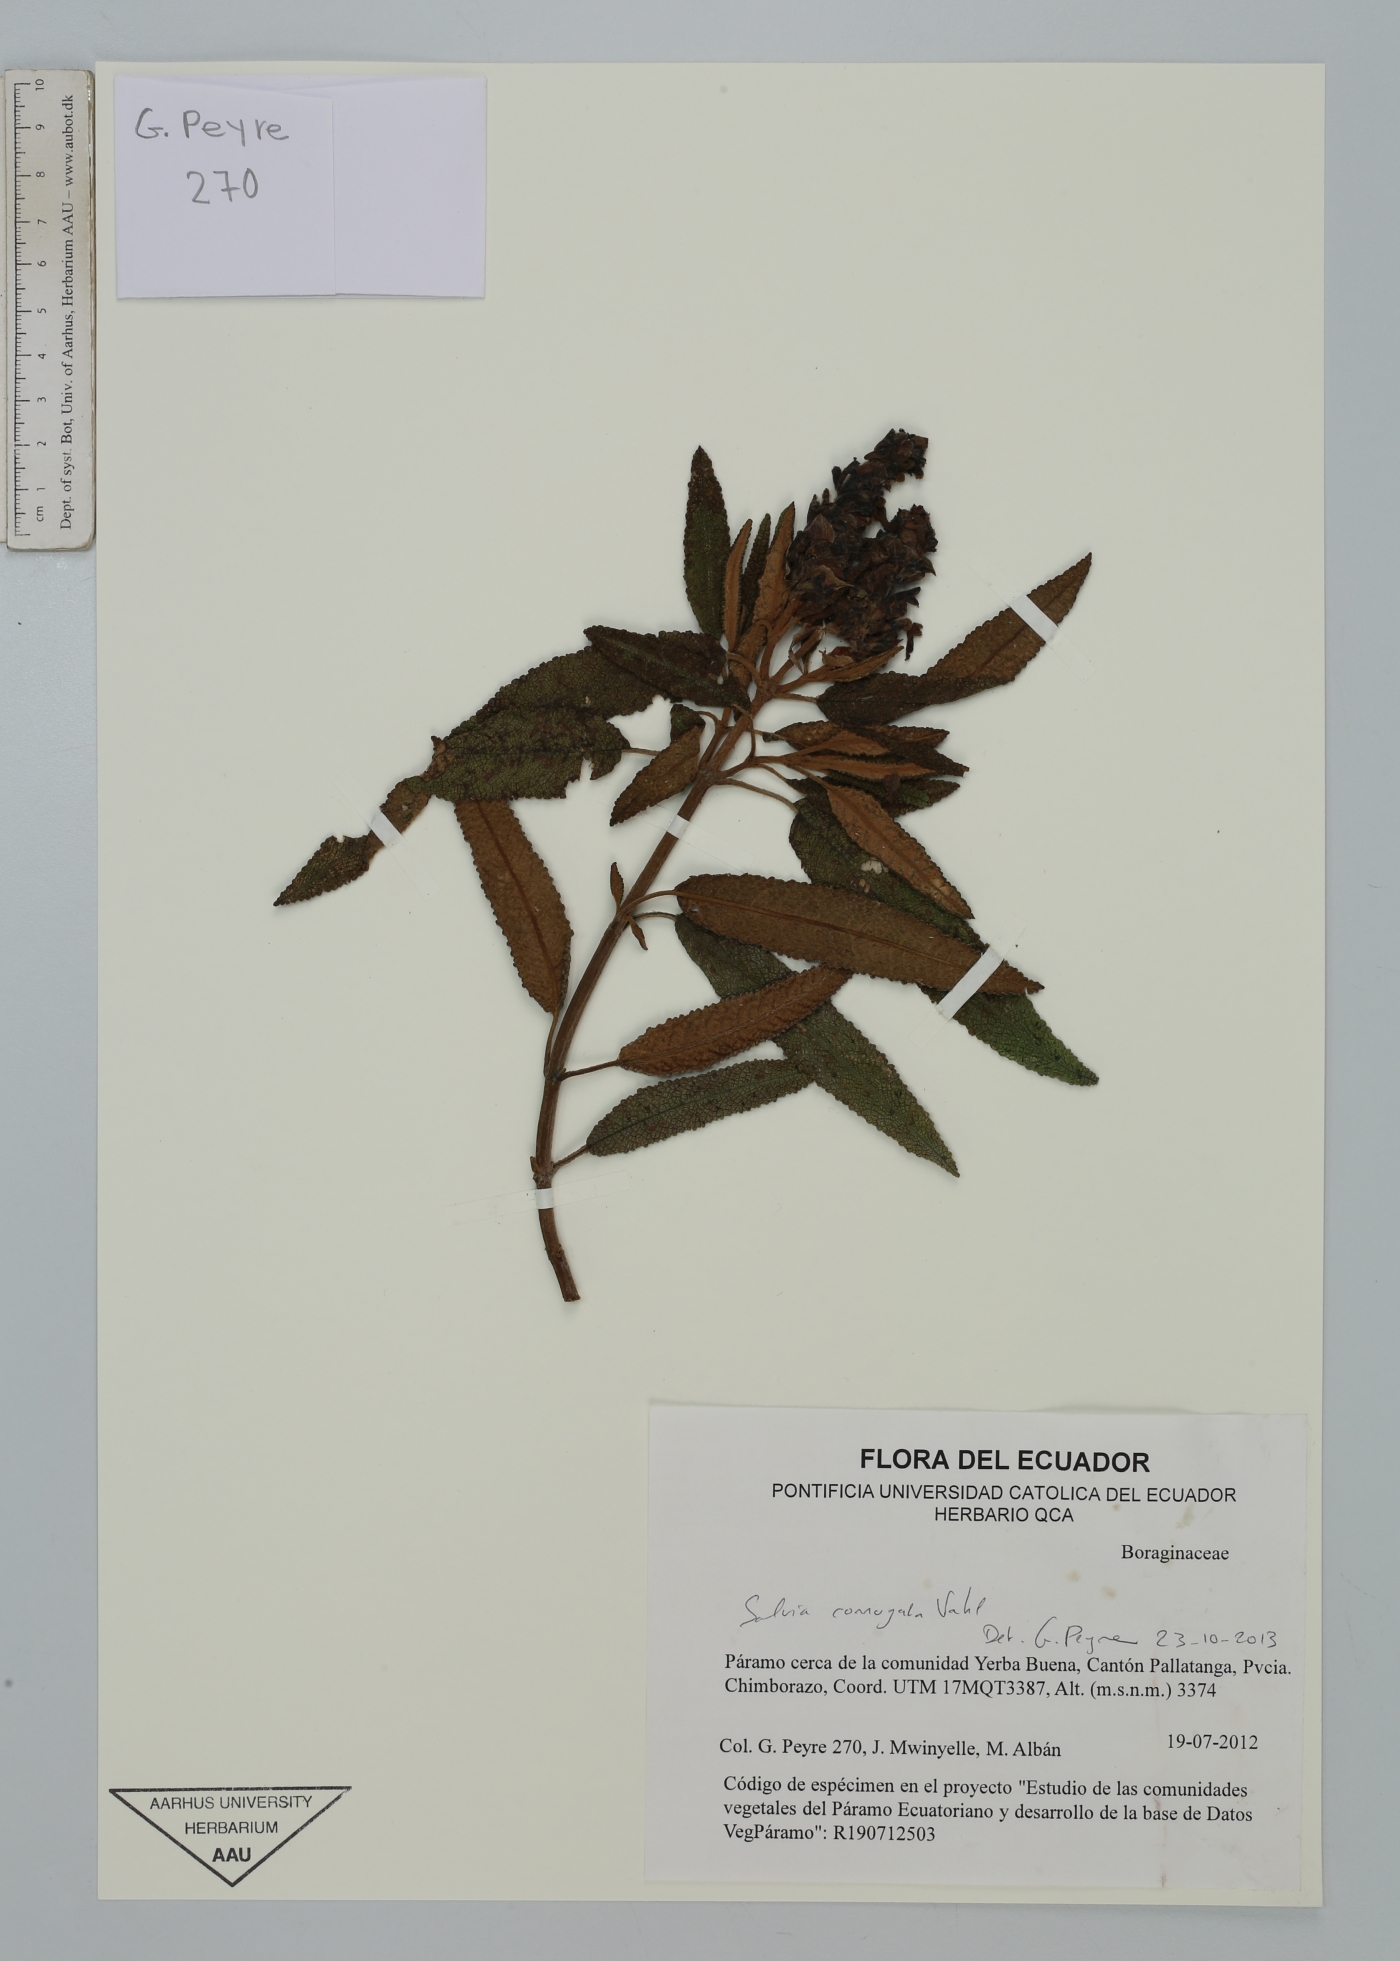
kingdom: Plantae
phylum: Tracheophyta
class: Magnoliopsida
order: Lamiales
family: Lamiaceae
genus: Salvia
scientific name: Salvia corrugata
